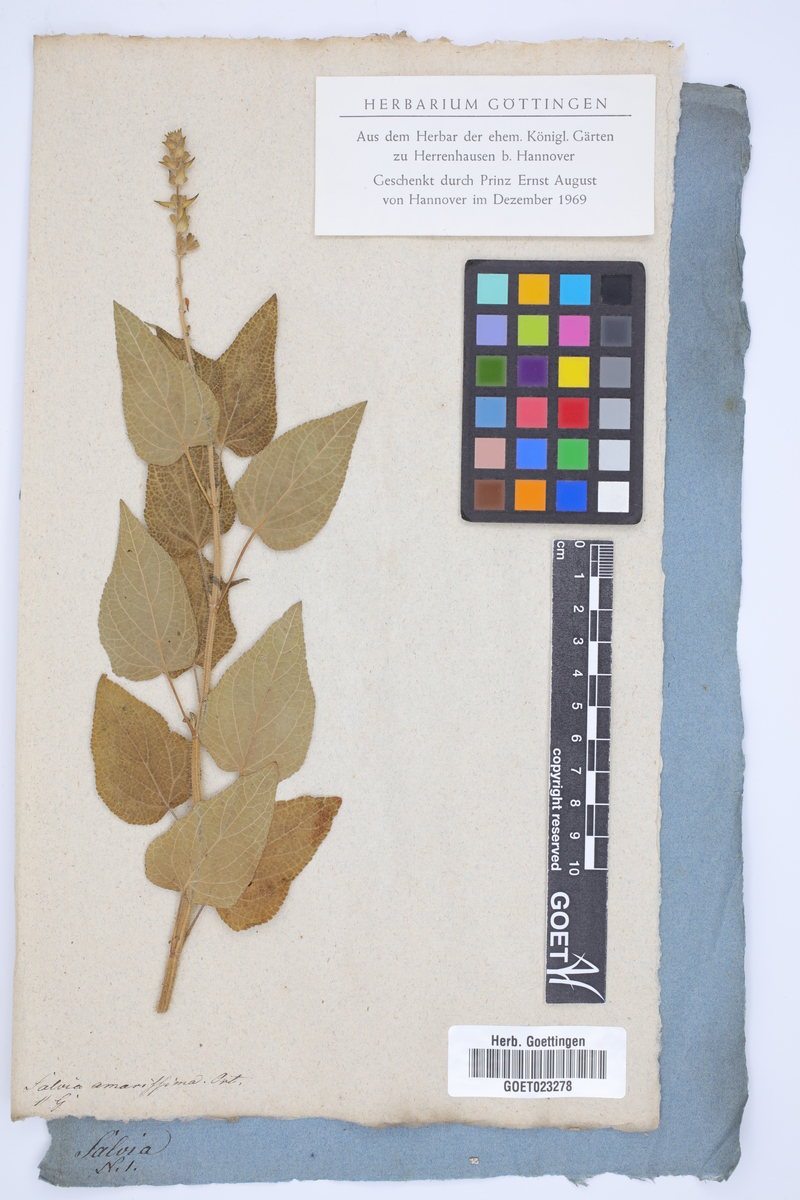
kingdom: Plantae
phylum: Tracheophyta
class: Magnoliopsida
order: Lamiales
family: Lamiaceae
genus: Salvia
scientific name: Salvia circinnata
